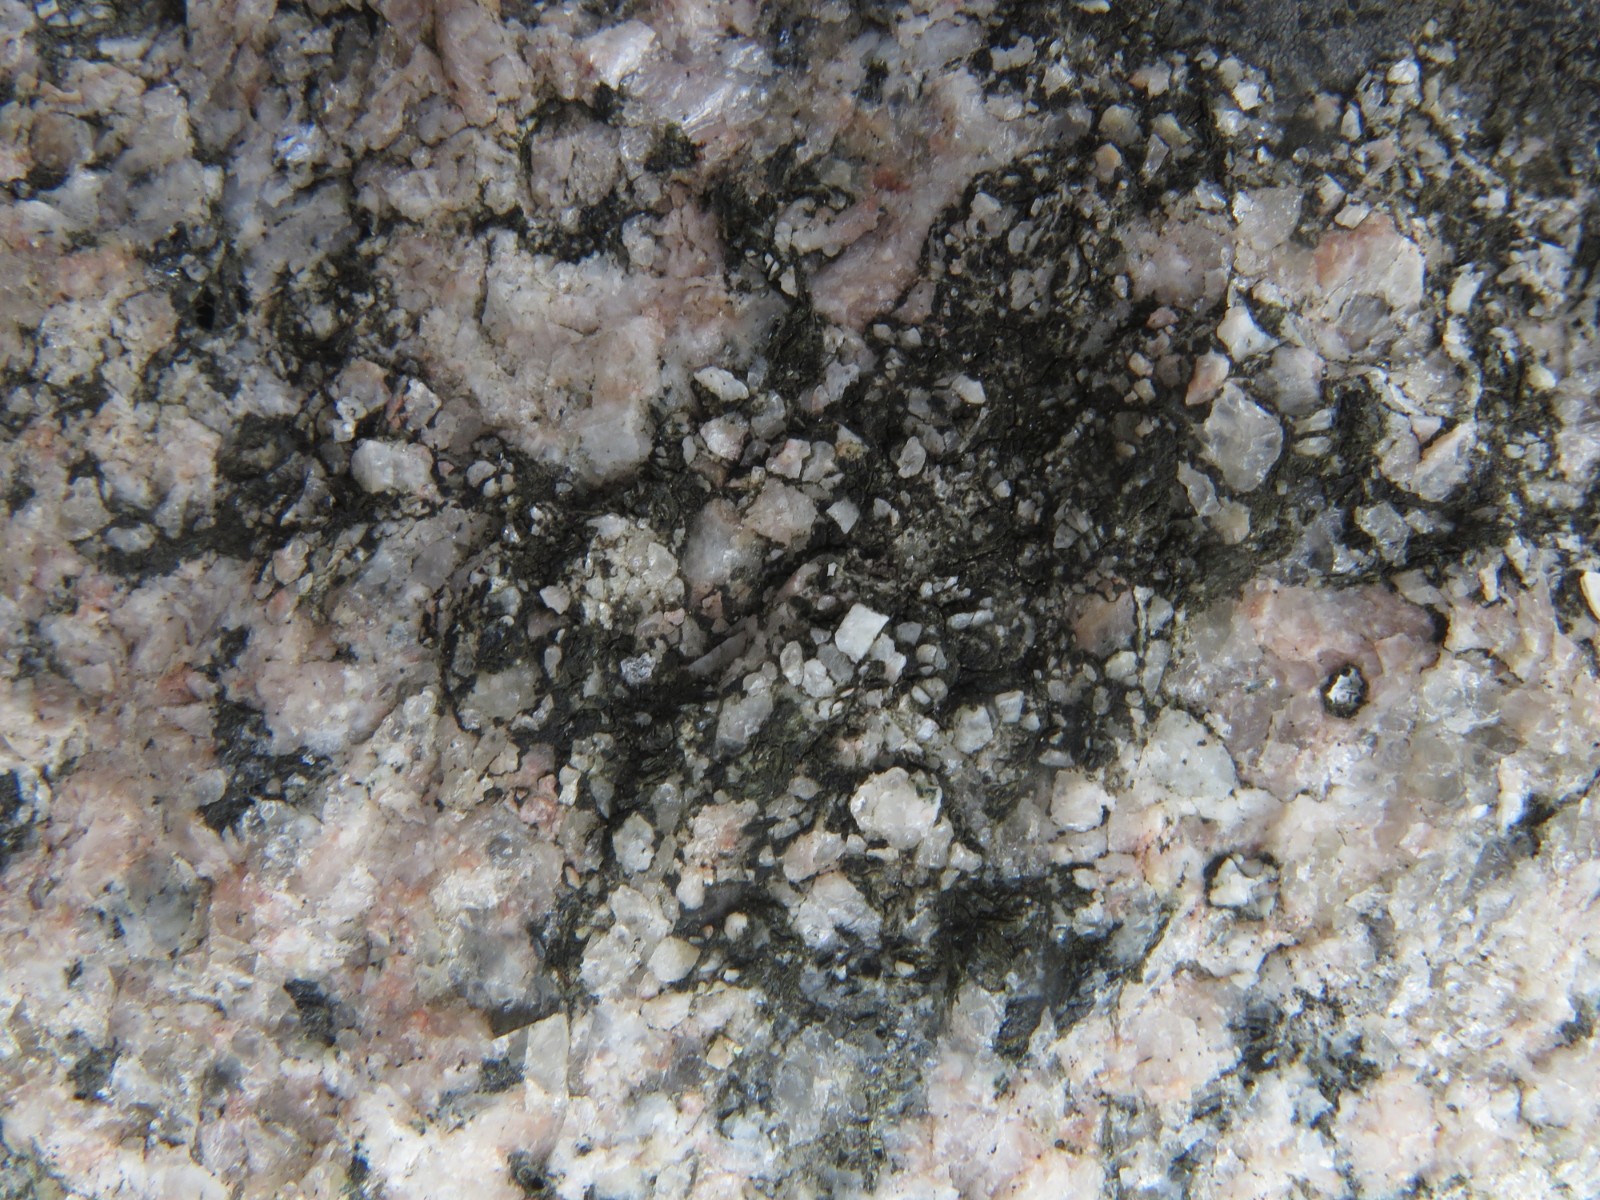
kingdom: Fungi
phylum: Ascomycota
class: Lecanoromycetes
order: Acarosporales
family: Acarosporaceae
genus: Acarospora
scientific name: Acarospora privigna
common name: sort foldekantlav
